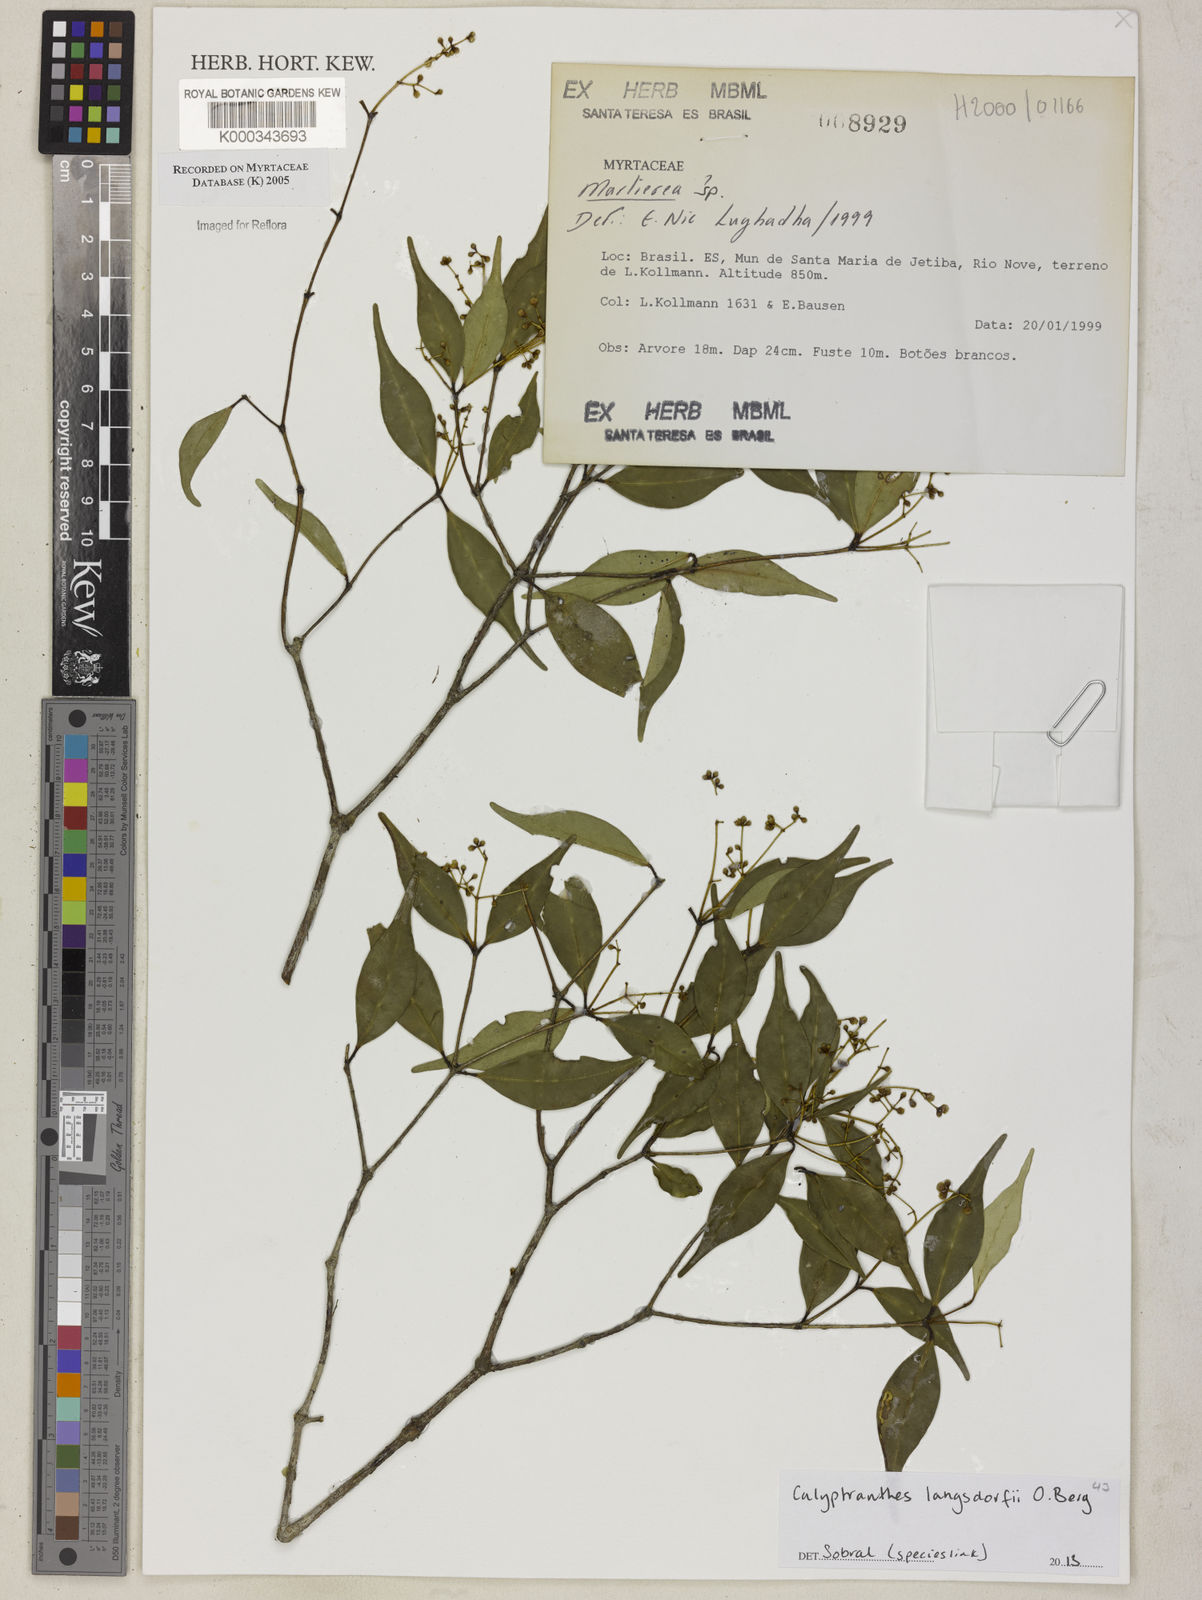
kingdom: Plantae
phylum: Tracheophyta
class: Magnoliopsida
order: Myrtales
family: Myrtaceae
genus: Myrcia
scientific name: Myrcia neosuaveolens
